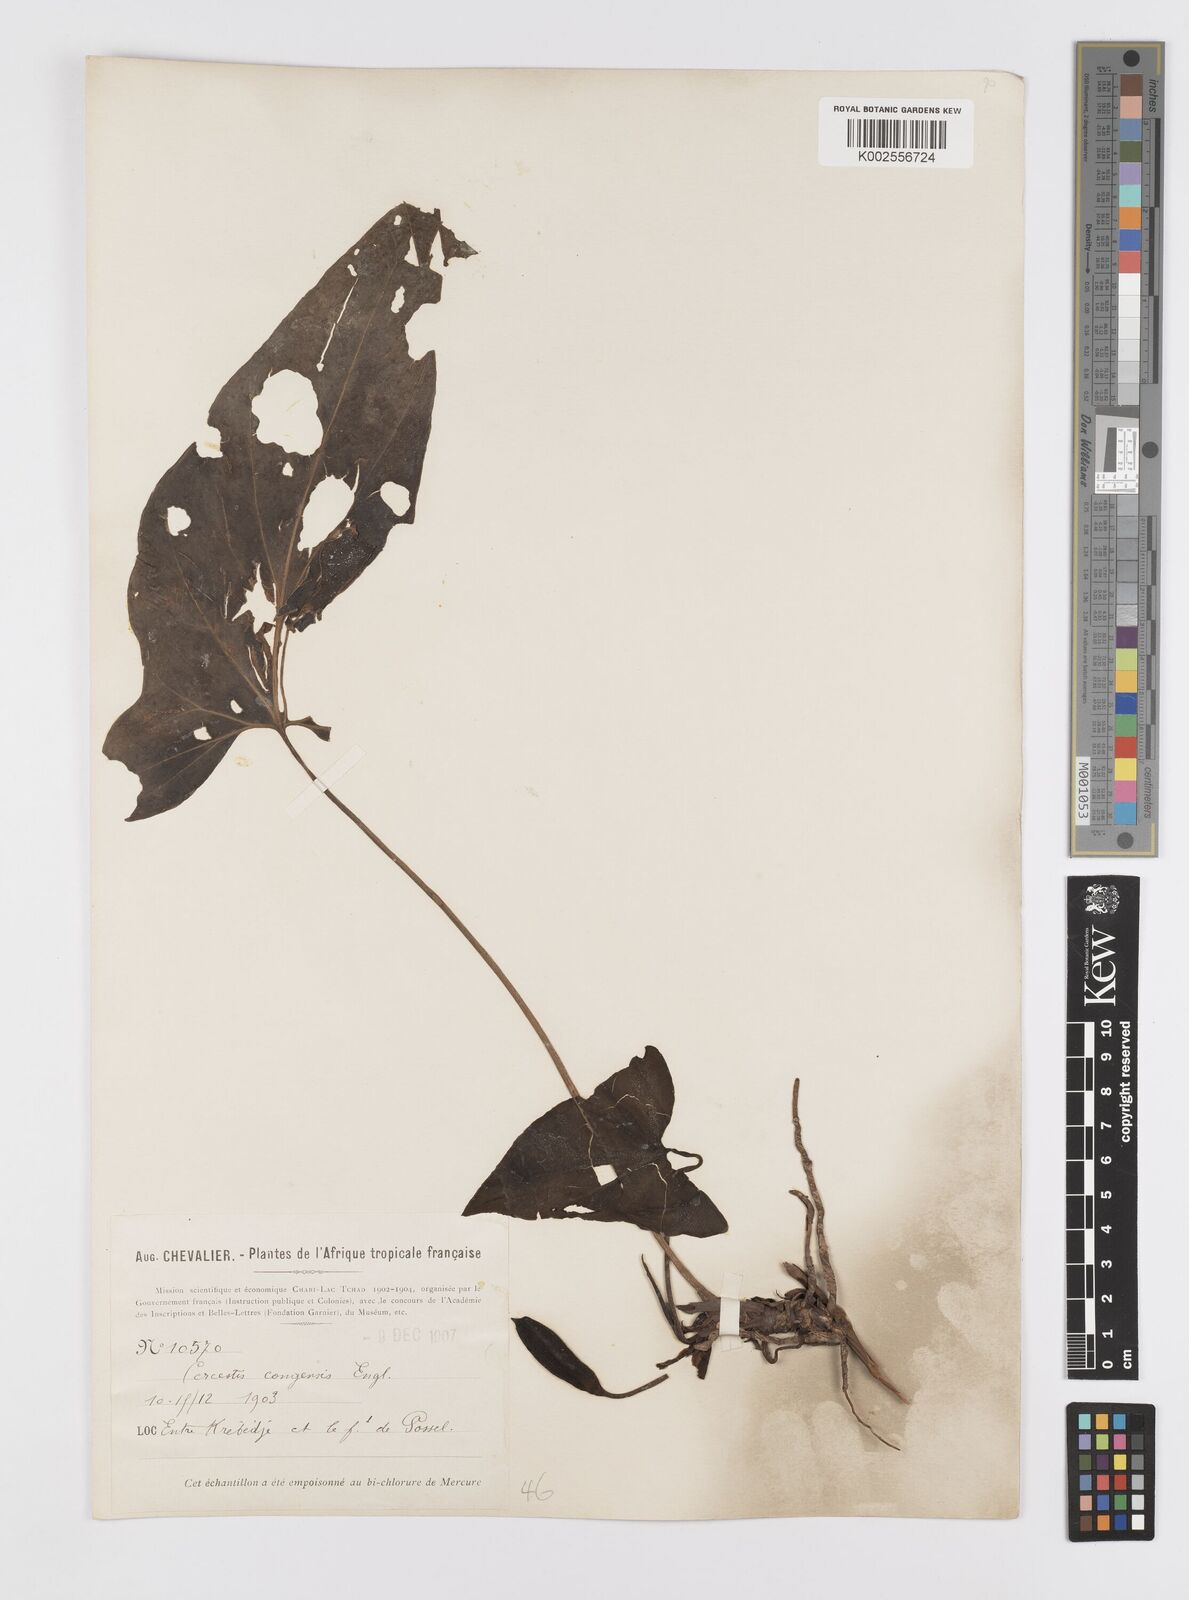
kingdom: Plantae
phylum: Tracheophyta
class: Liliopsida
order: Alismatales
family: Araceae
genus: Cercestis
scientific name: Cercestis congoensis
